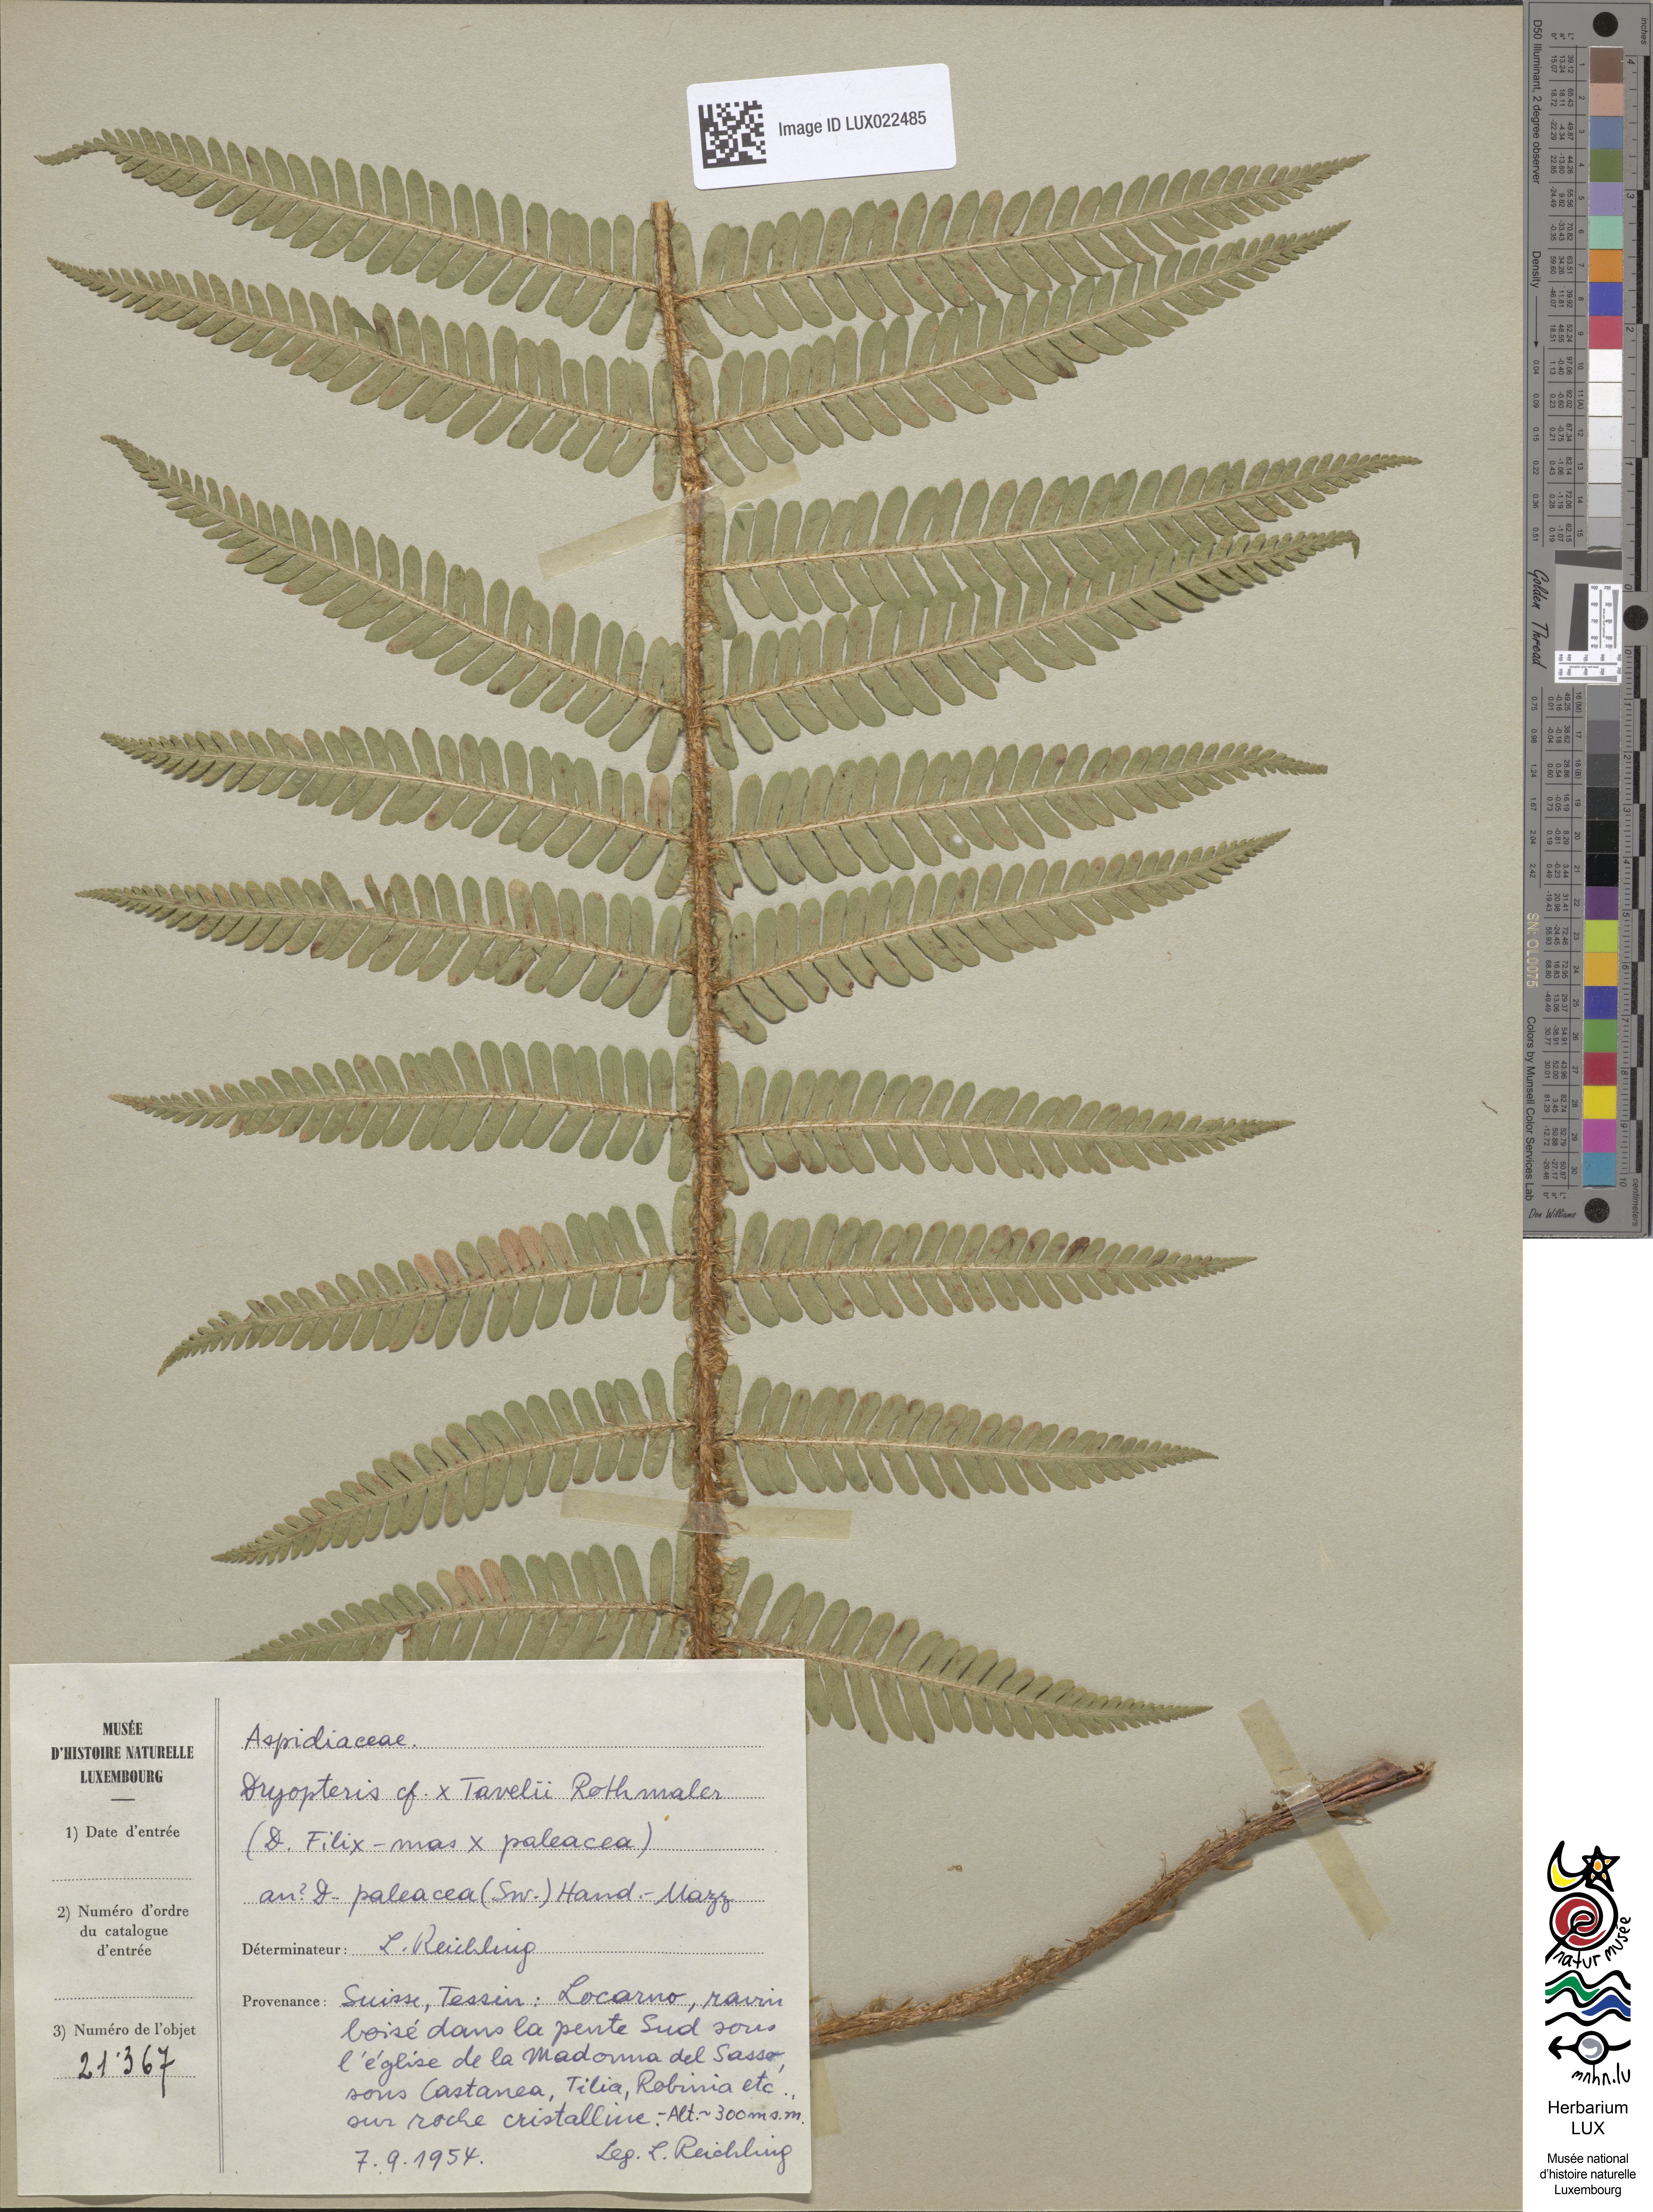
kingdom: Plantae
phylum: Tracheophyta
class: Polypodiopsida
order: Polypodiales
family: Dryopteridaceae
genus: Dryopteris
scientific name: Dryopteris borreri
